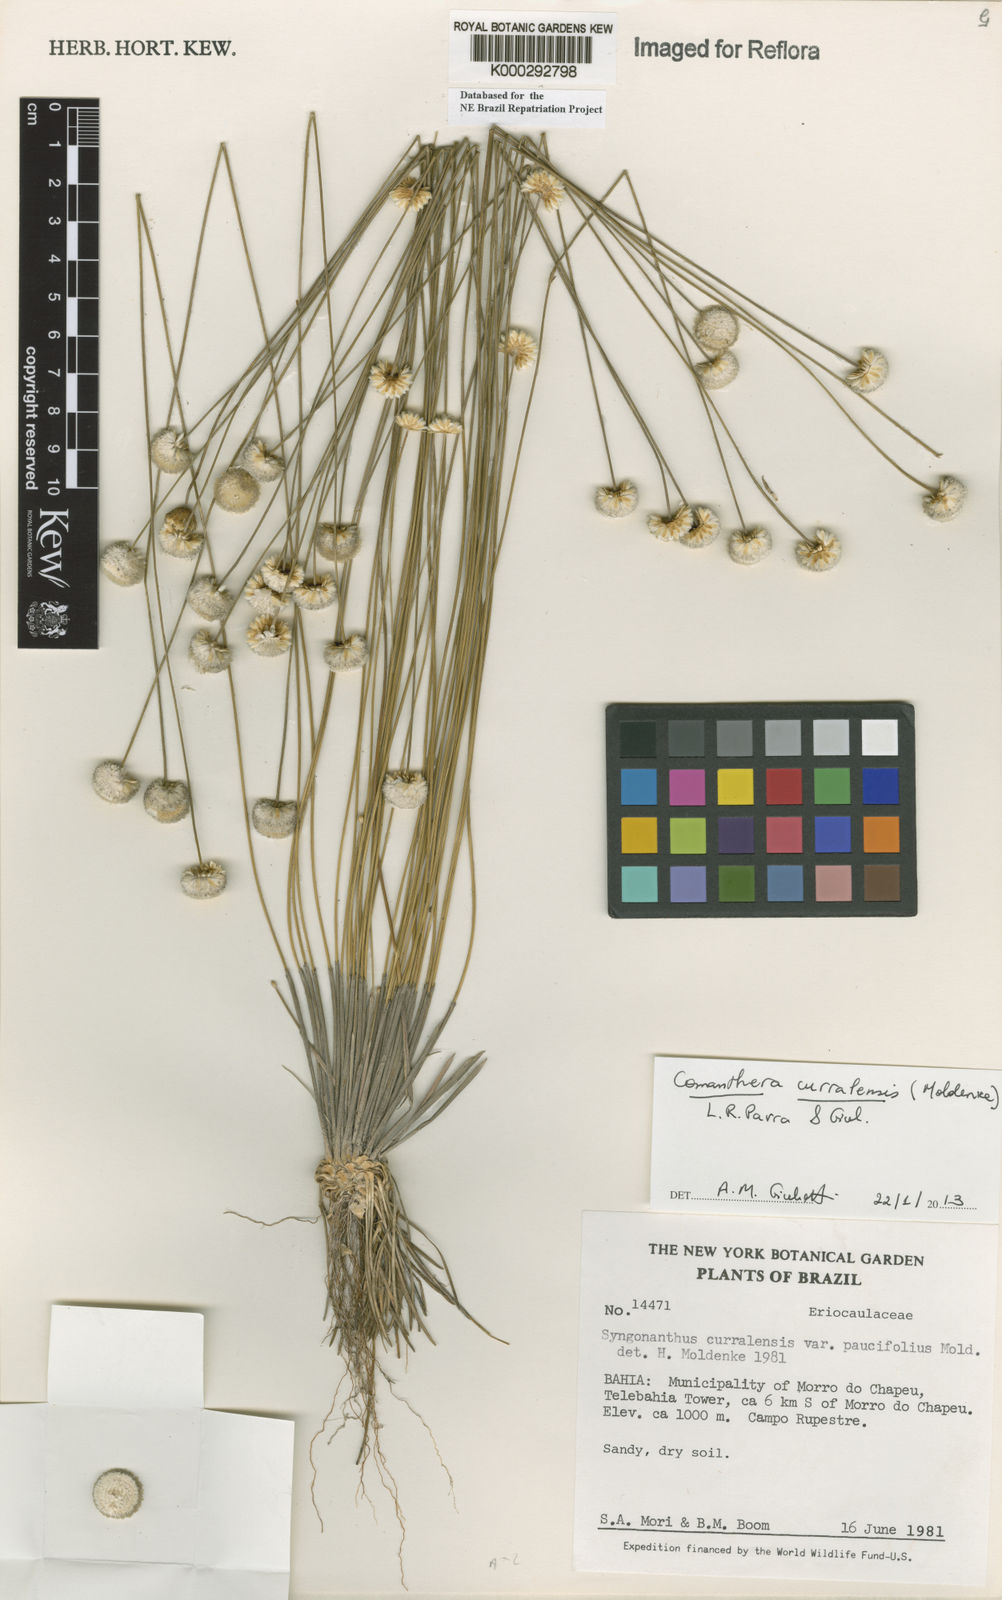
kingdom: Plantae
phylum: Tracheophyta
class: Liliopsida
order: Poales
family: Eriocaulaceae
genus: Comanthera
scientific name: Comanthera curralensis
